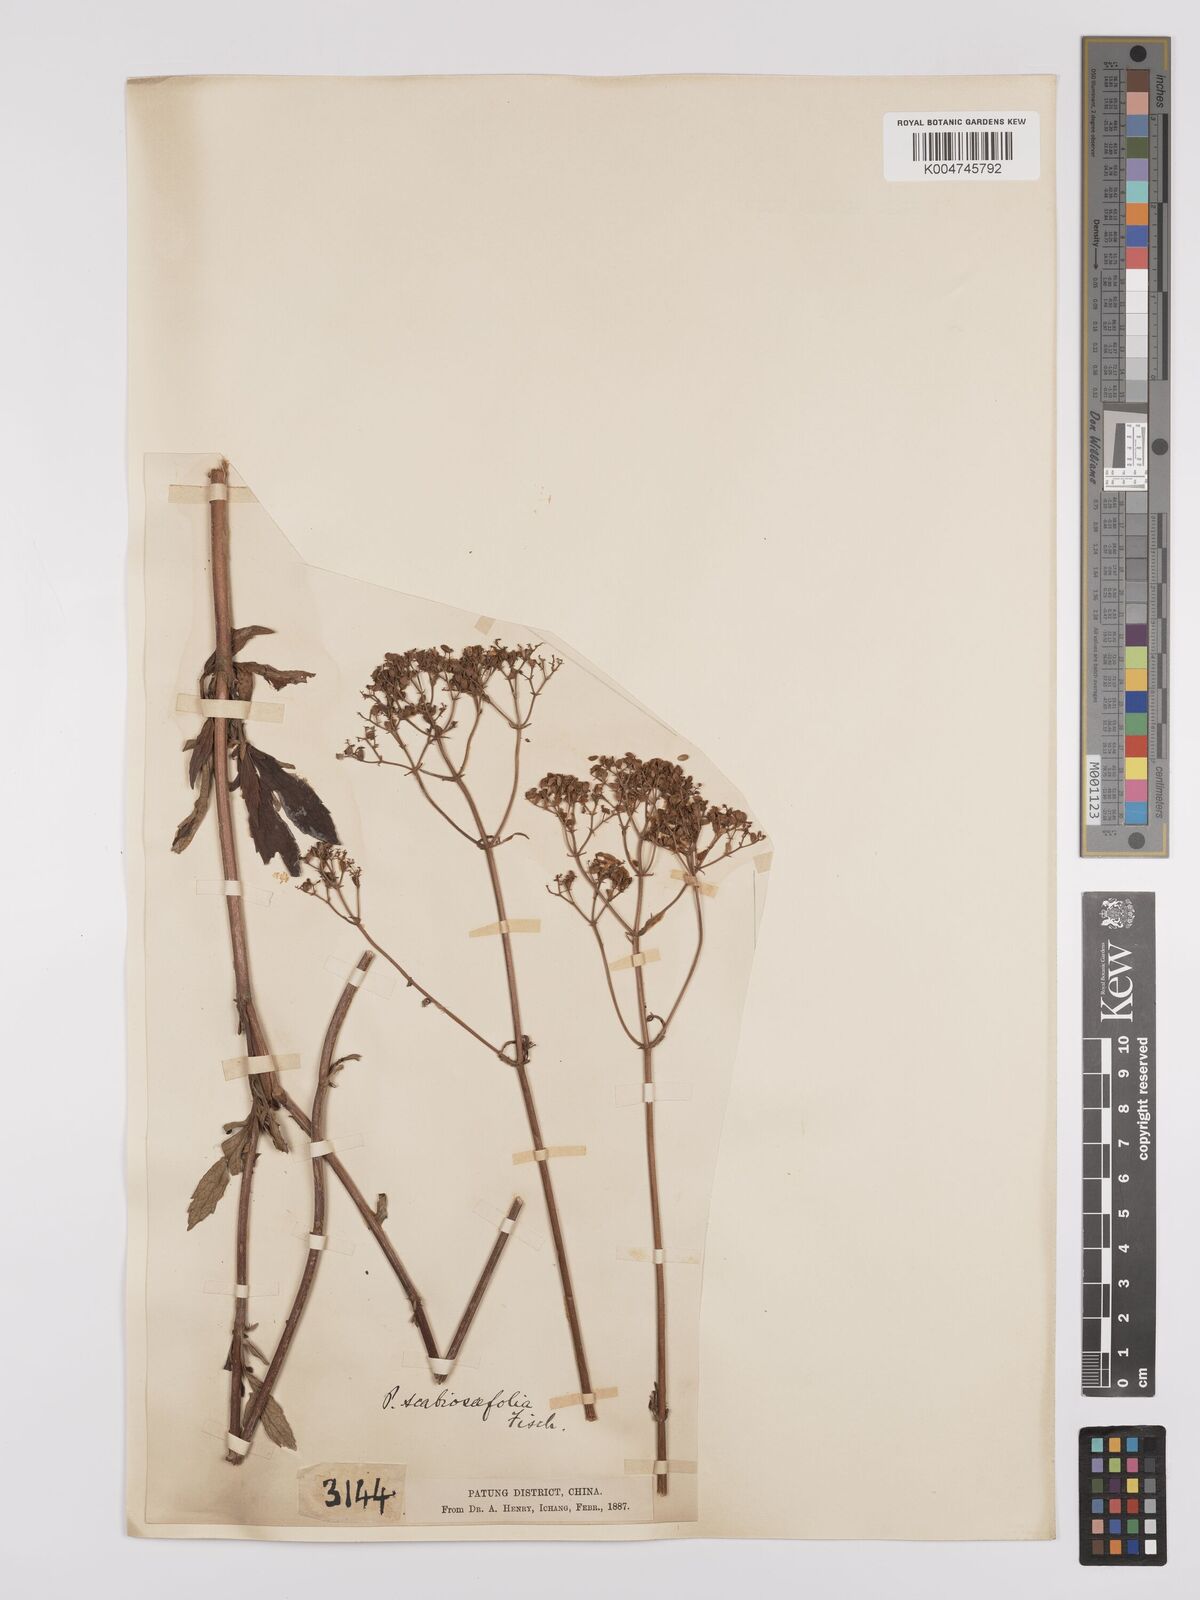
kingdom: Plantae
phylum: Tracheophyta
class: Magnoliopsida
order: Dipsacales
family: Caprifoliaceae
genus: Patrinia
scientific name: Patrinia scabiosifolia
